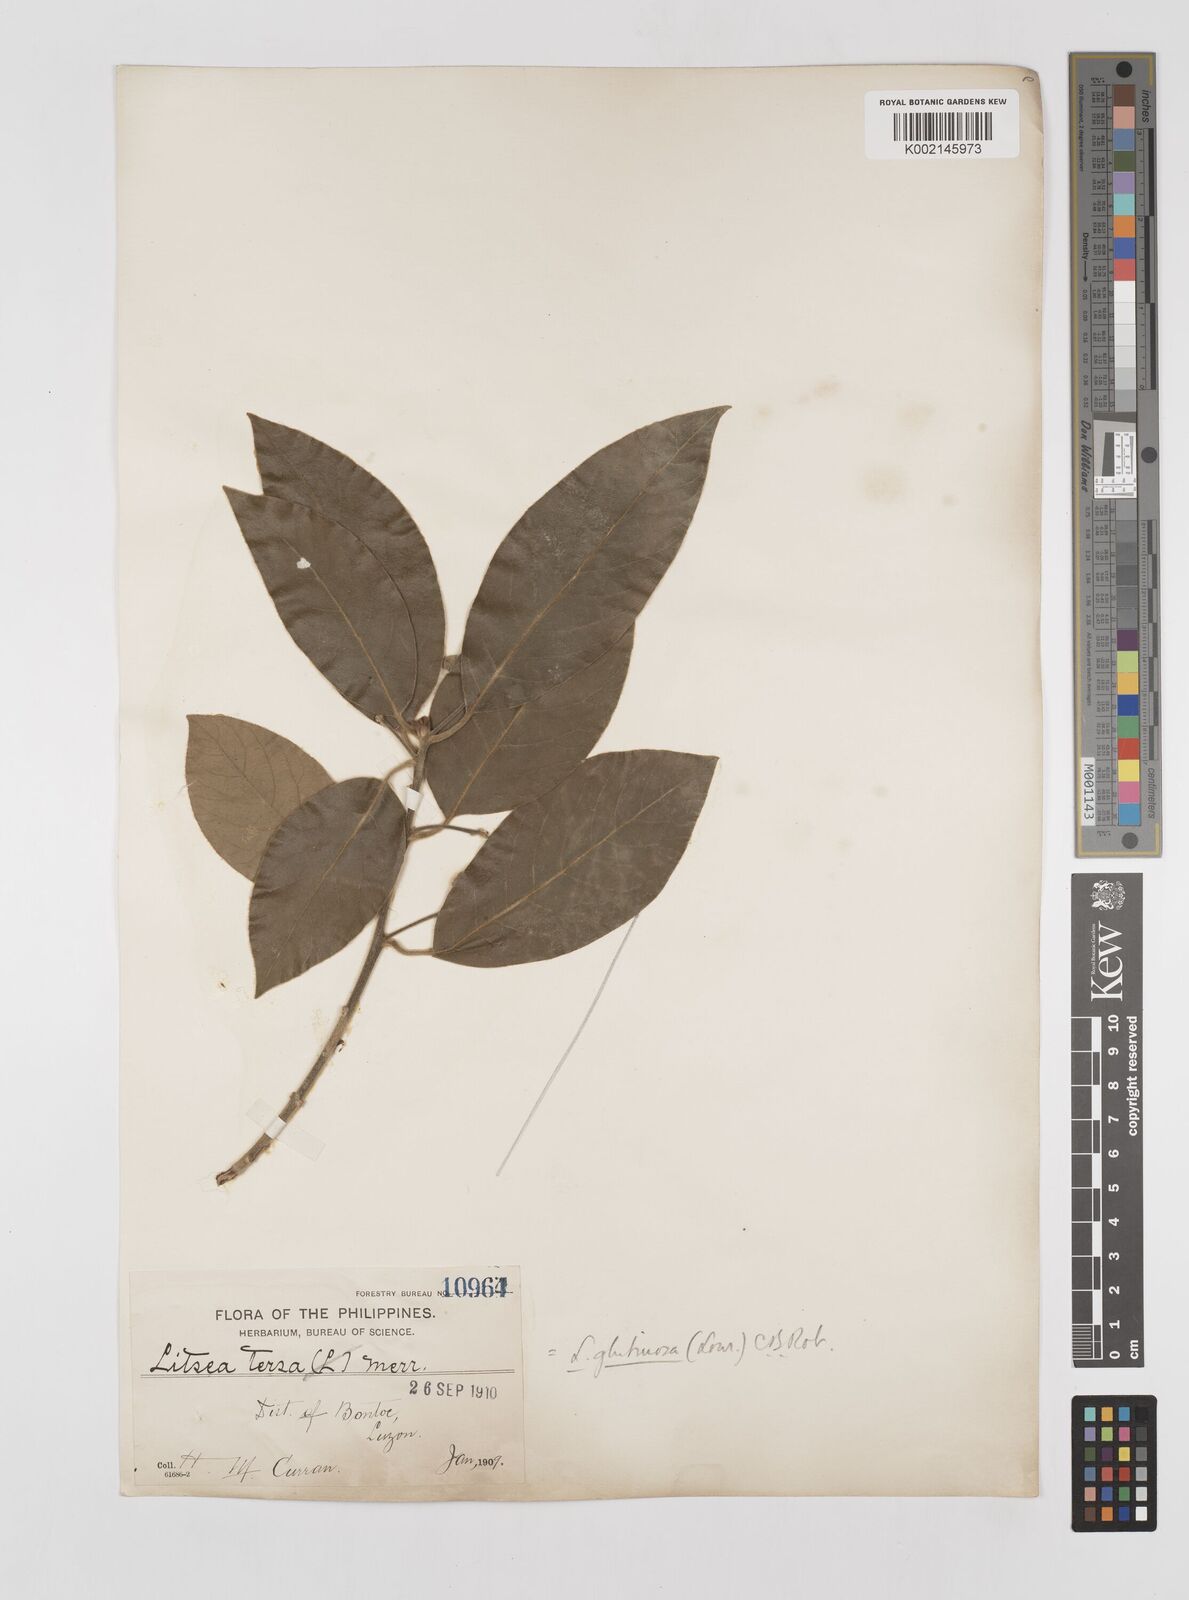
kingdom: Plantae
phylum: Tracheophyta
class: Magnoliopsida
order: Laurales
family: Lauraceae
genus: Litsea
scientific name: Litsea glutinosa
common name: Indian-laurel
